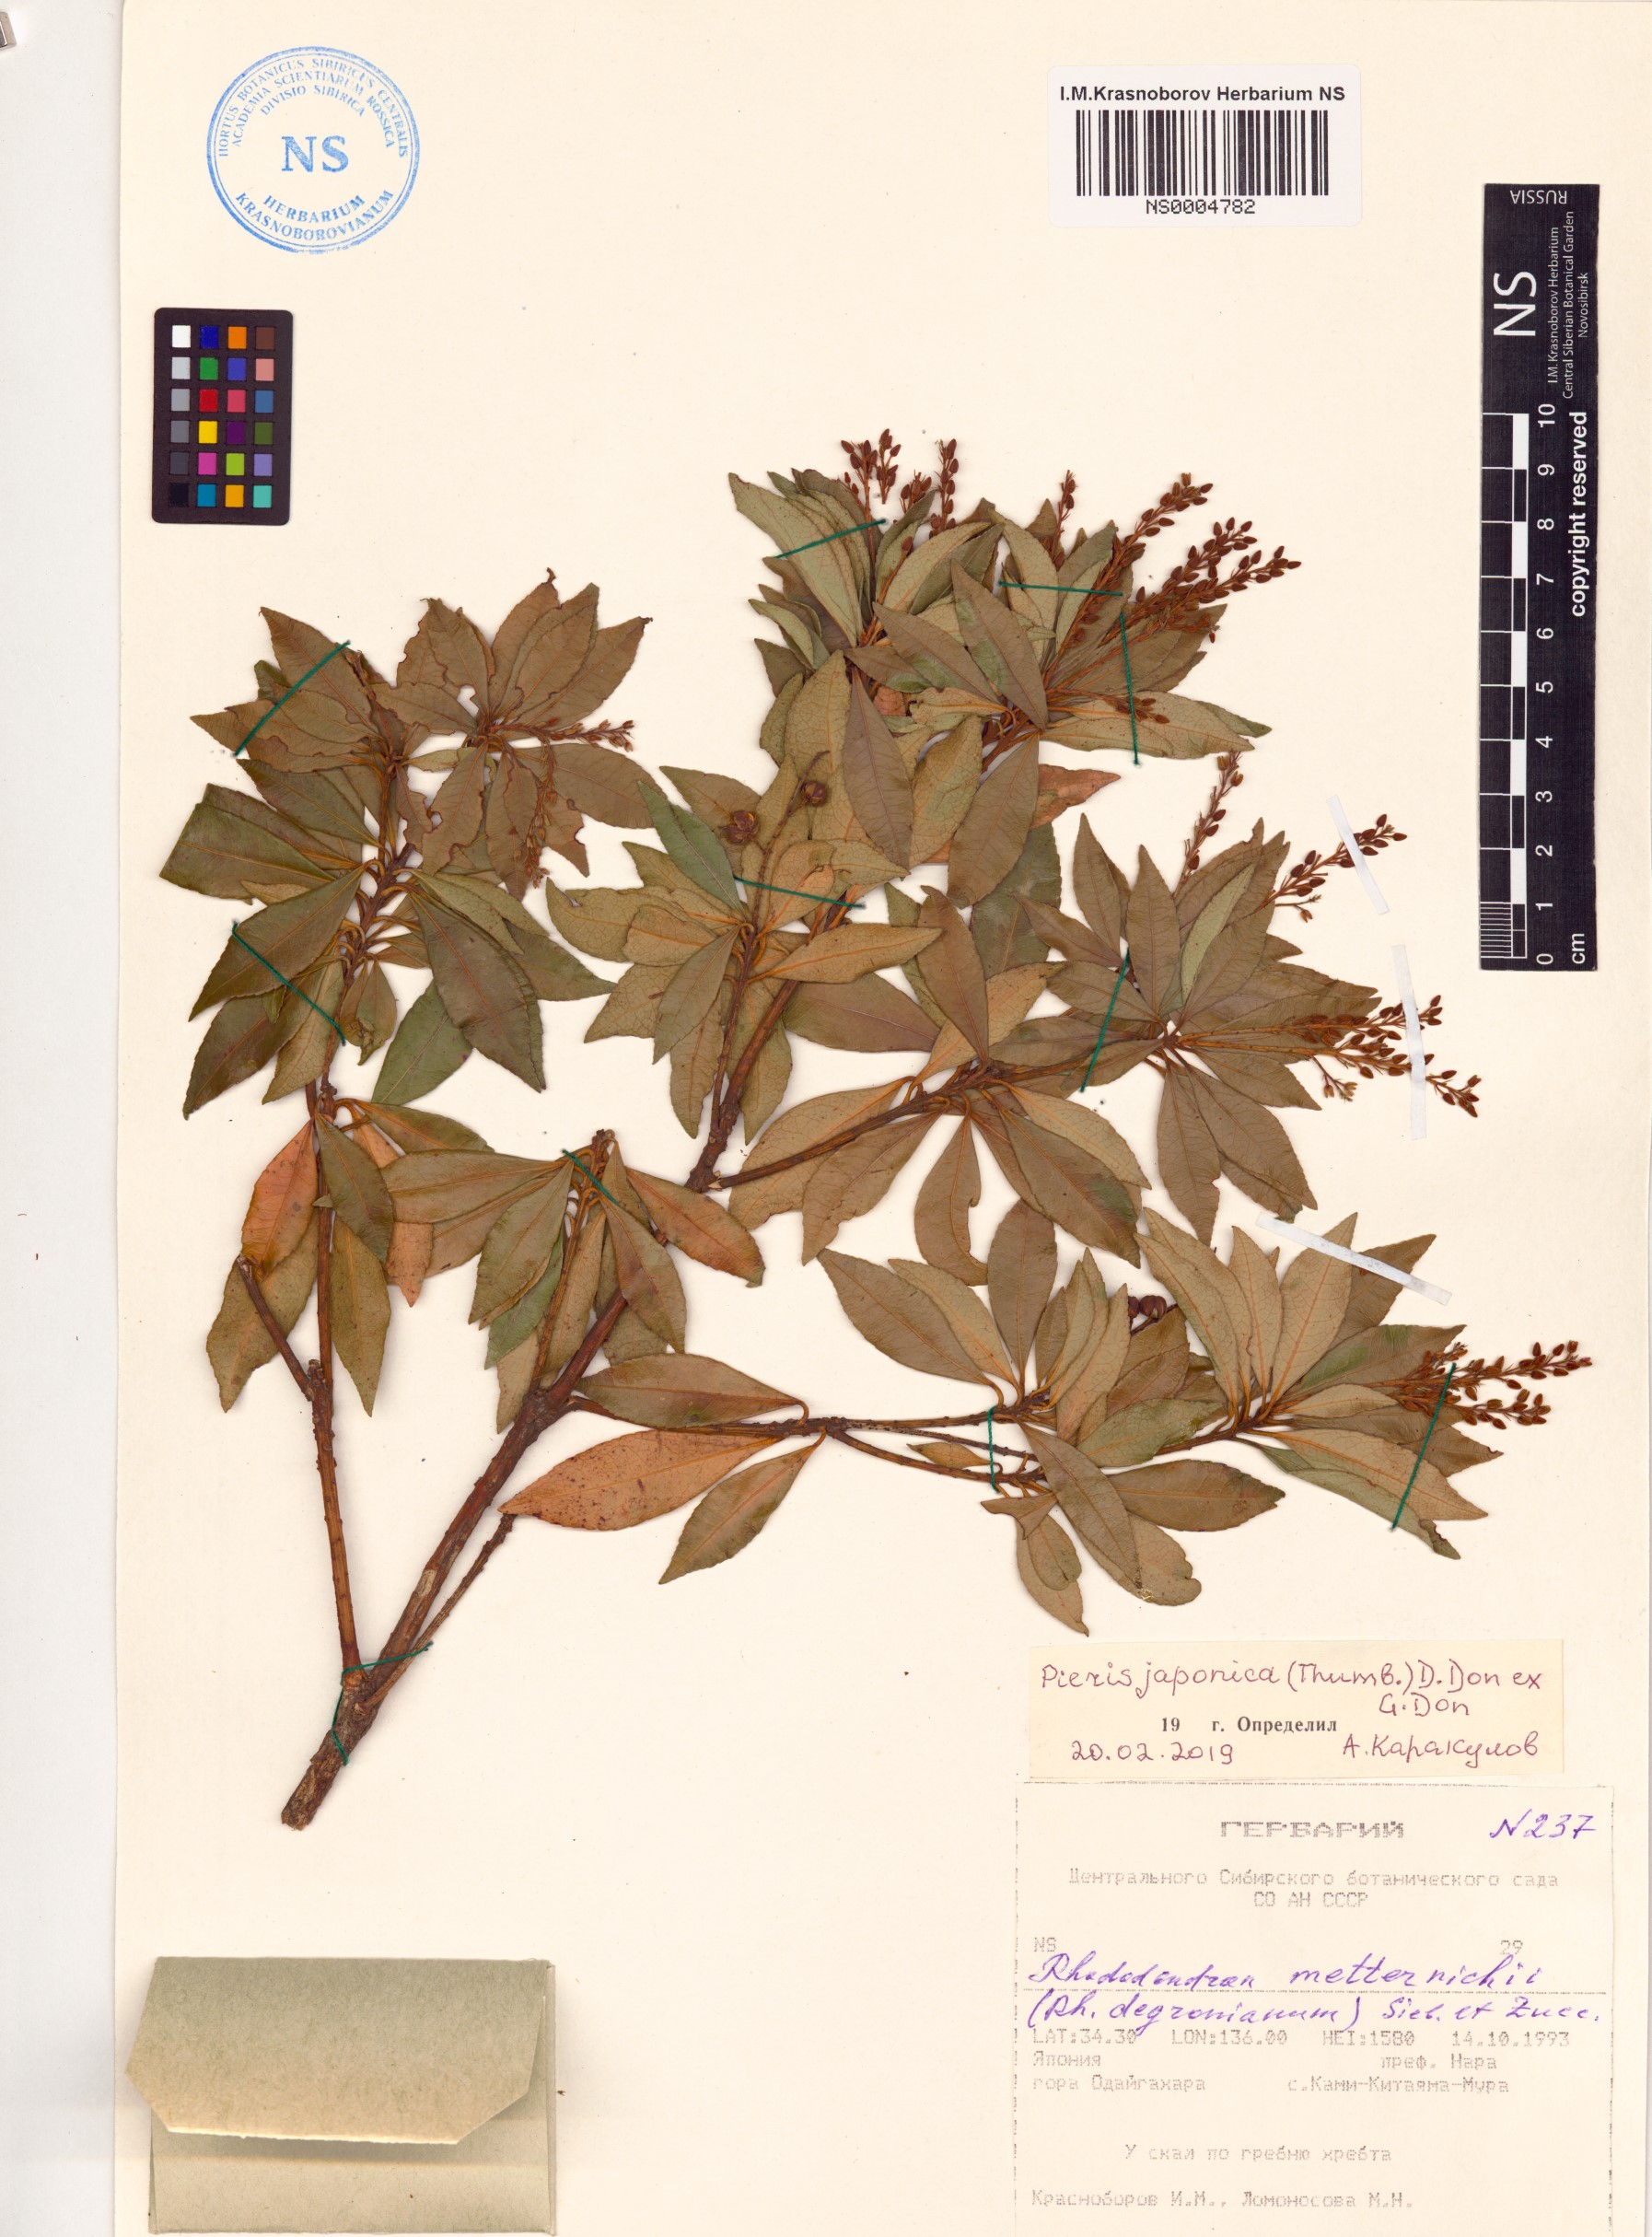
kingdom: Plantae
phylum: Tracheophyta
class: Magnoliopsida
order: Ericales
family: Ericaceae
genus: Pieris
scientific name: Pieris japonica
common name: Japanese pieris
